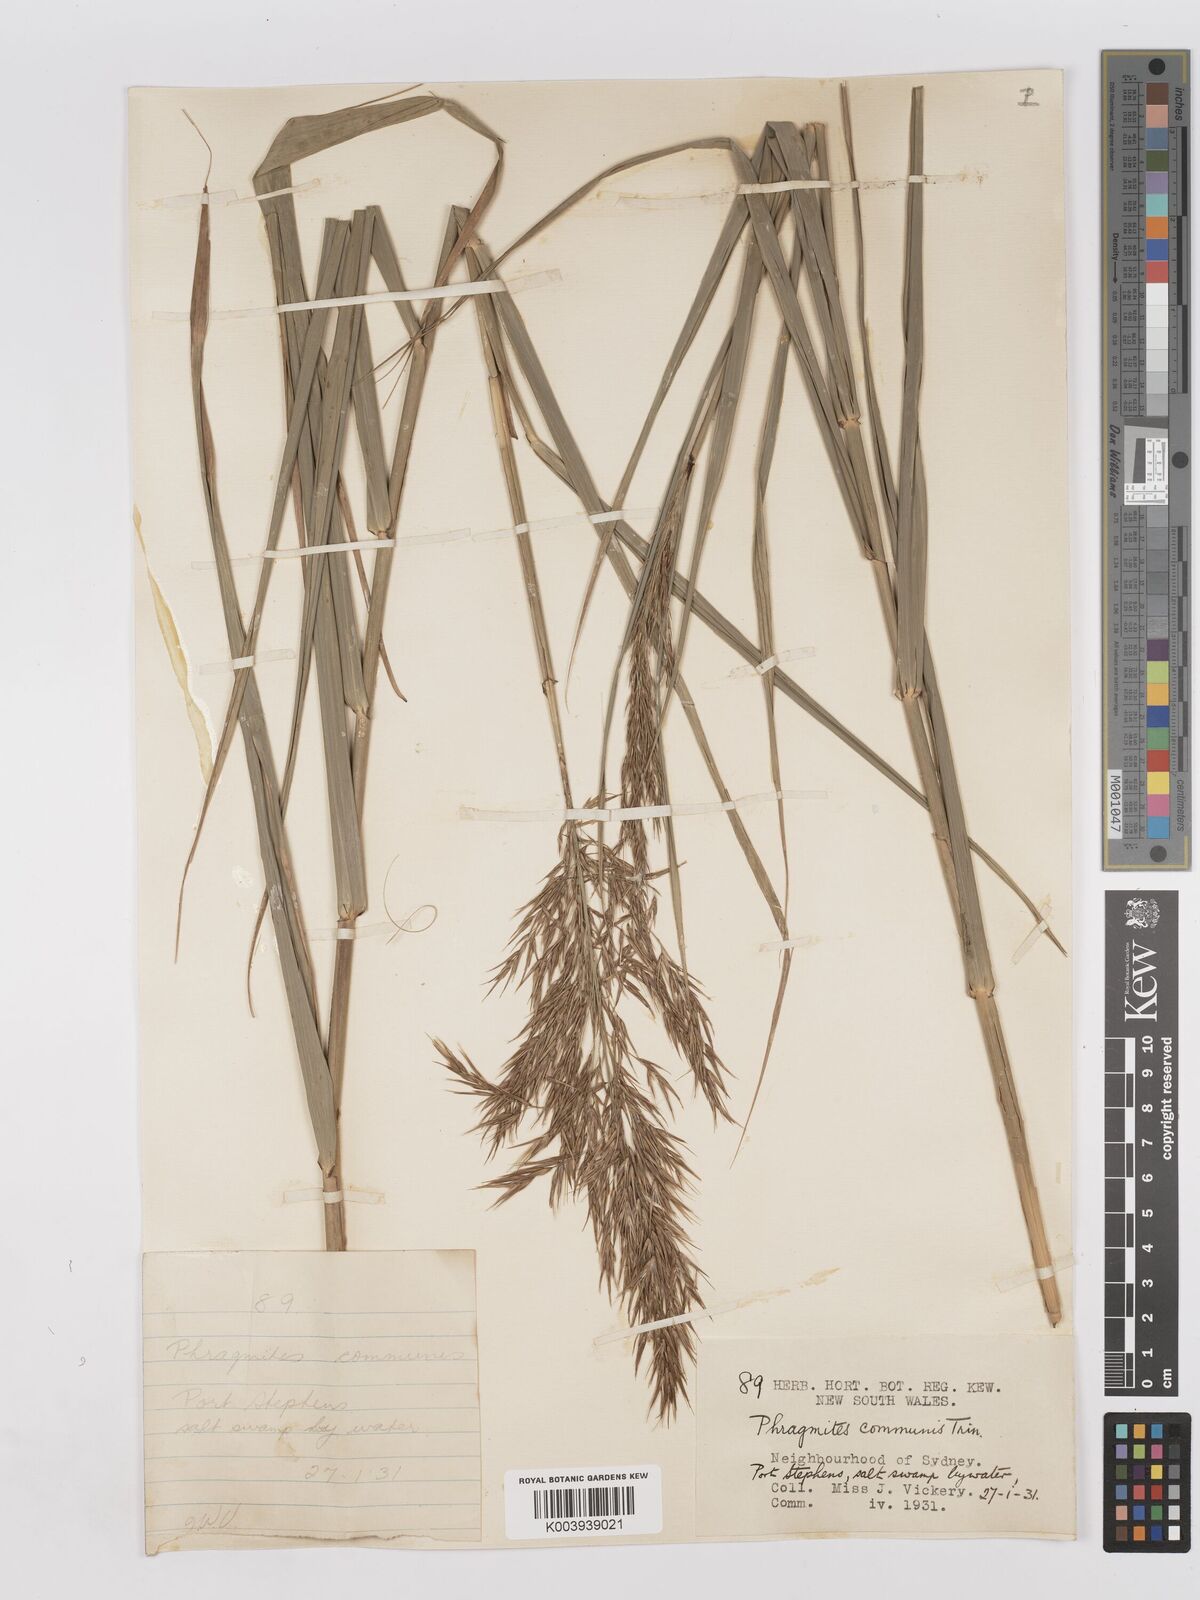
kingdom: Plantae
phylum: Tracheophyta
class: Liliopsida
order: Poales
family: Poaceae
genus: Phragmites
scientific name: Phragmites australis
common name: Common reed
